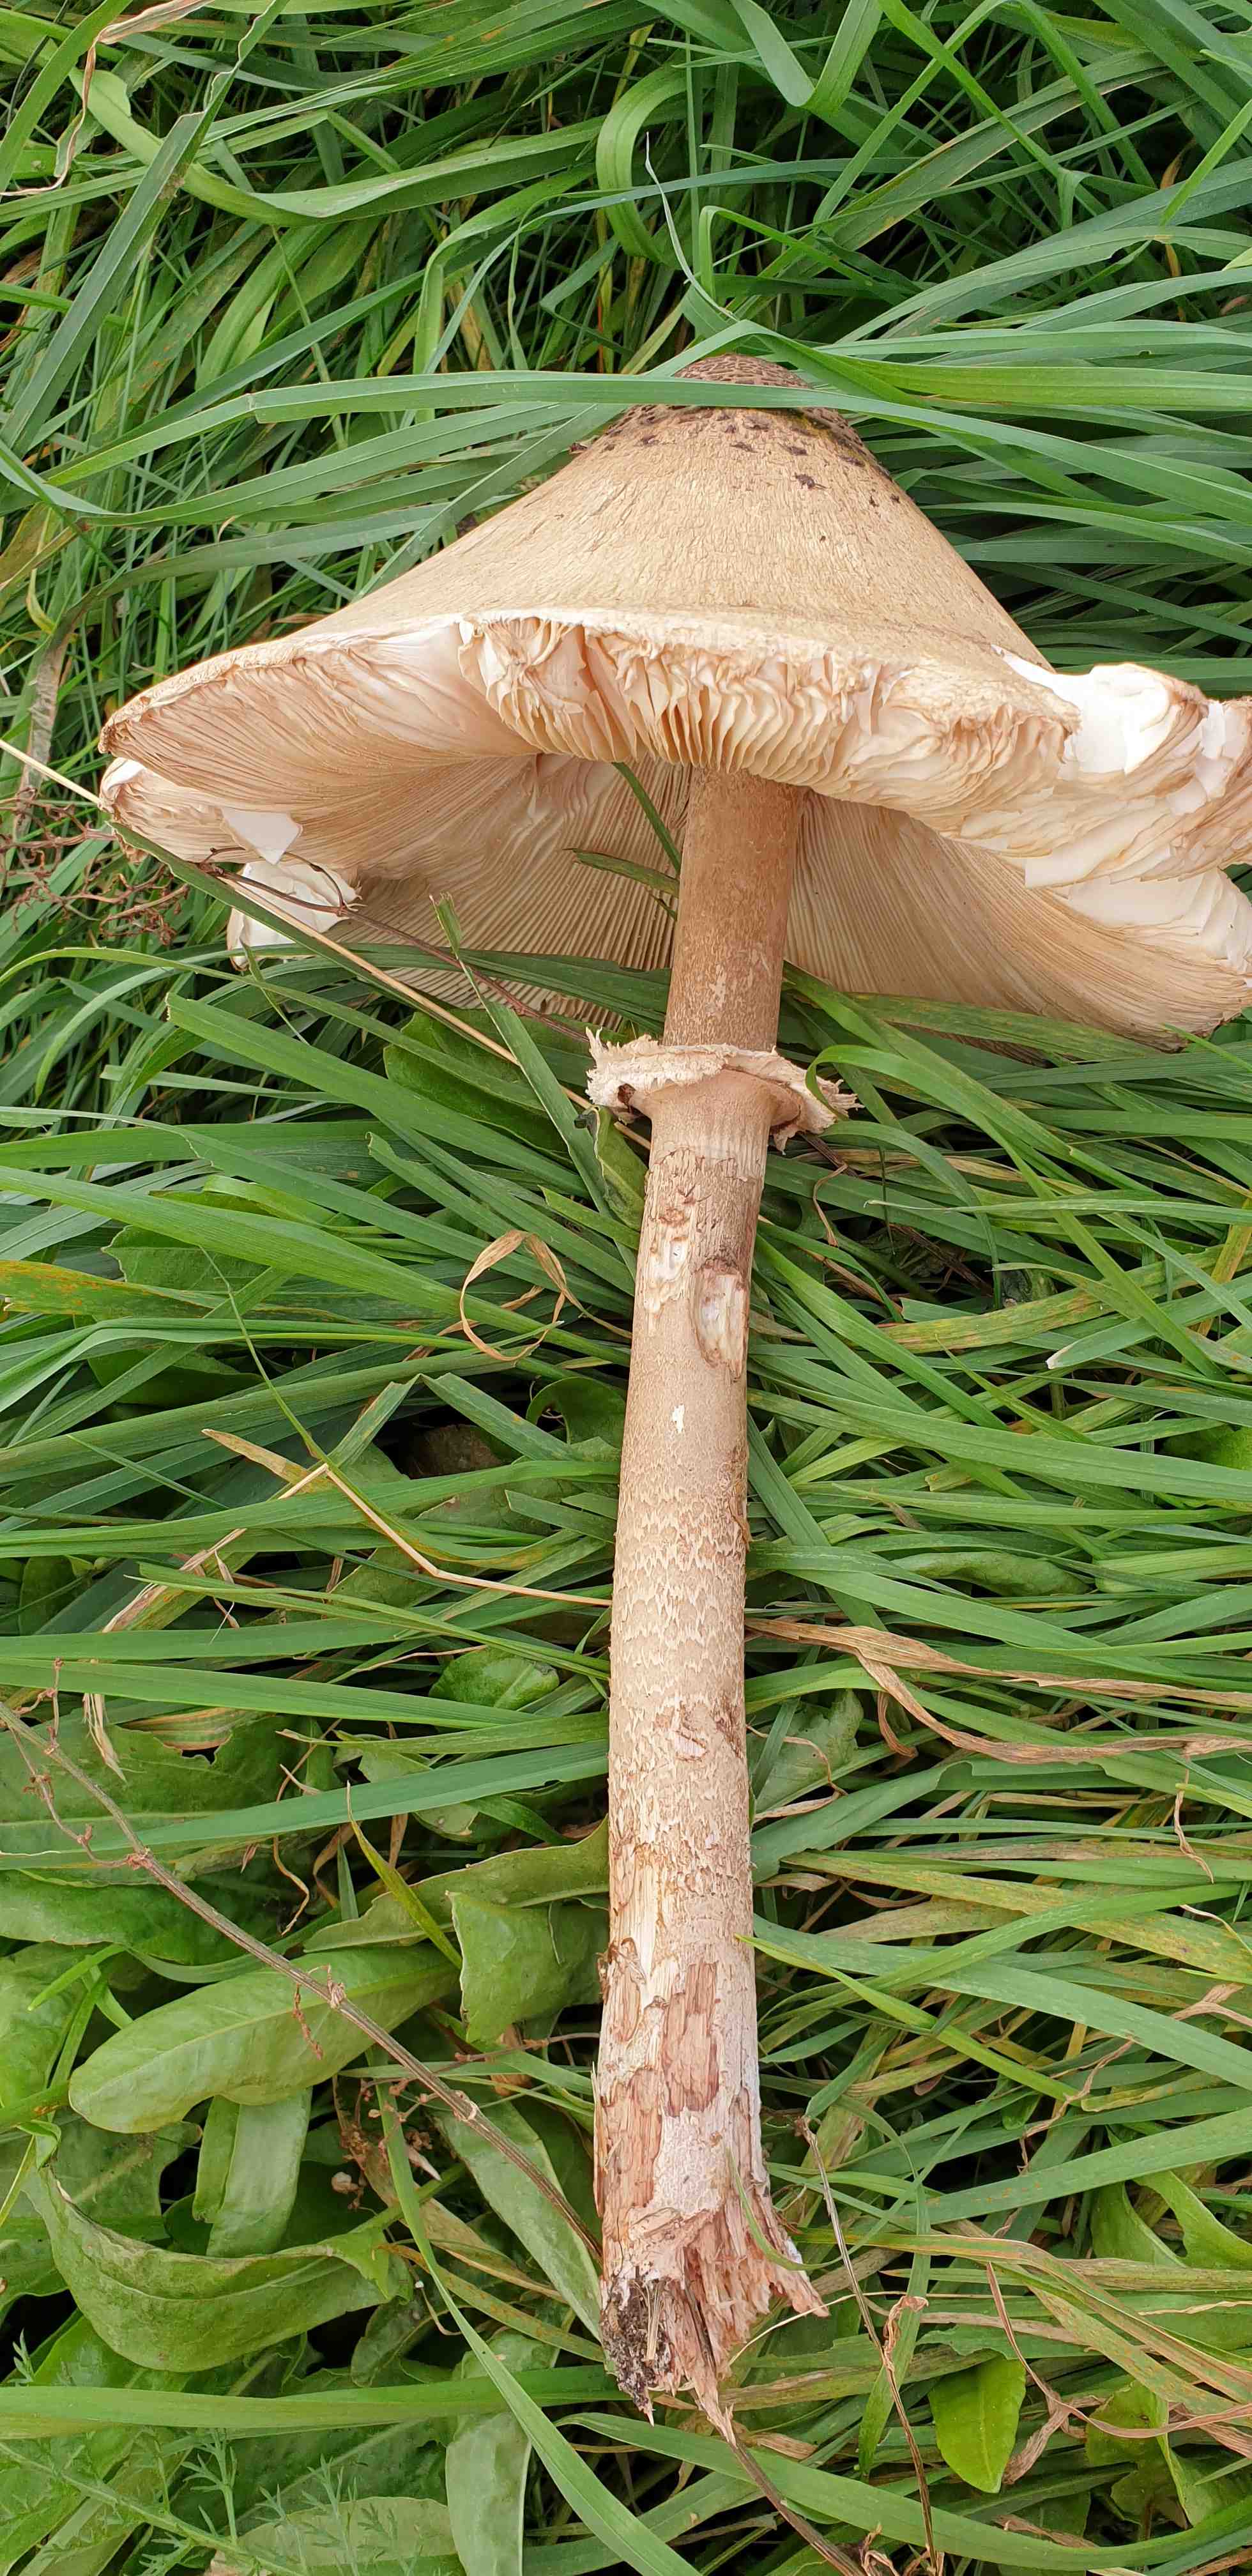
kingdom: Fungi
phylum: Basidiomycota
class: Agaricomycetes
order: Agaricales
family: Agaricaceae
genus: Macrolepiota
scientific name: Macrolepiota procera
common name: stor kæmpeparasolhat
